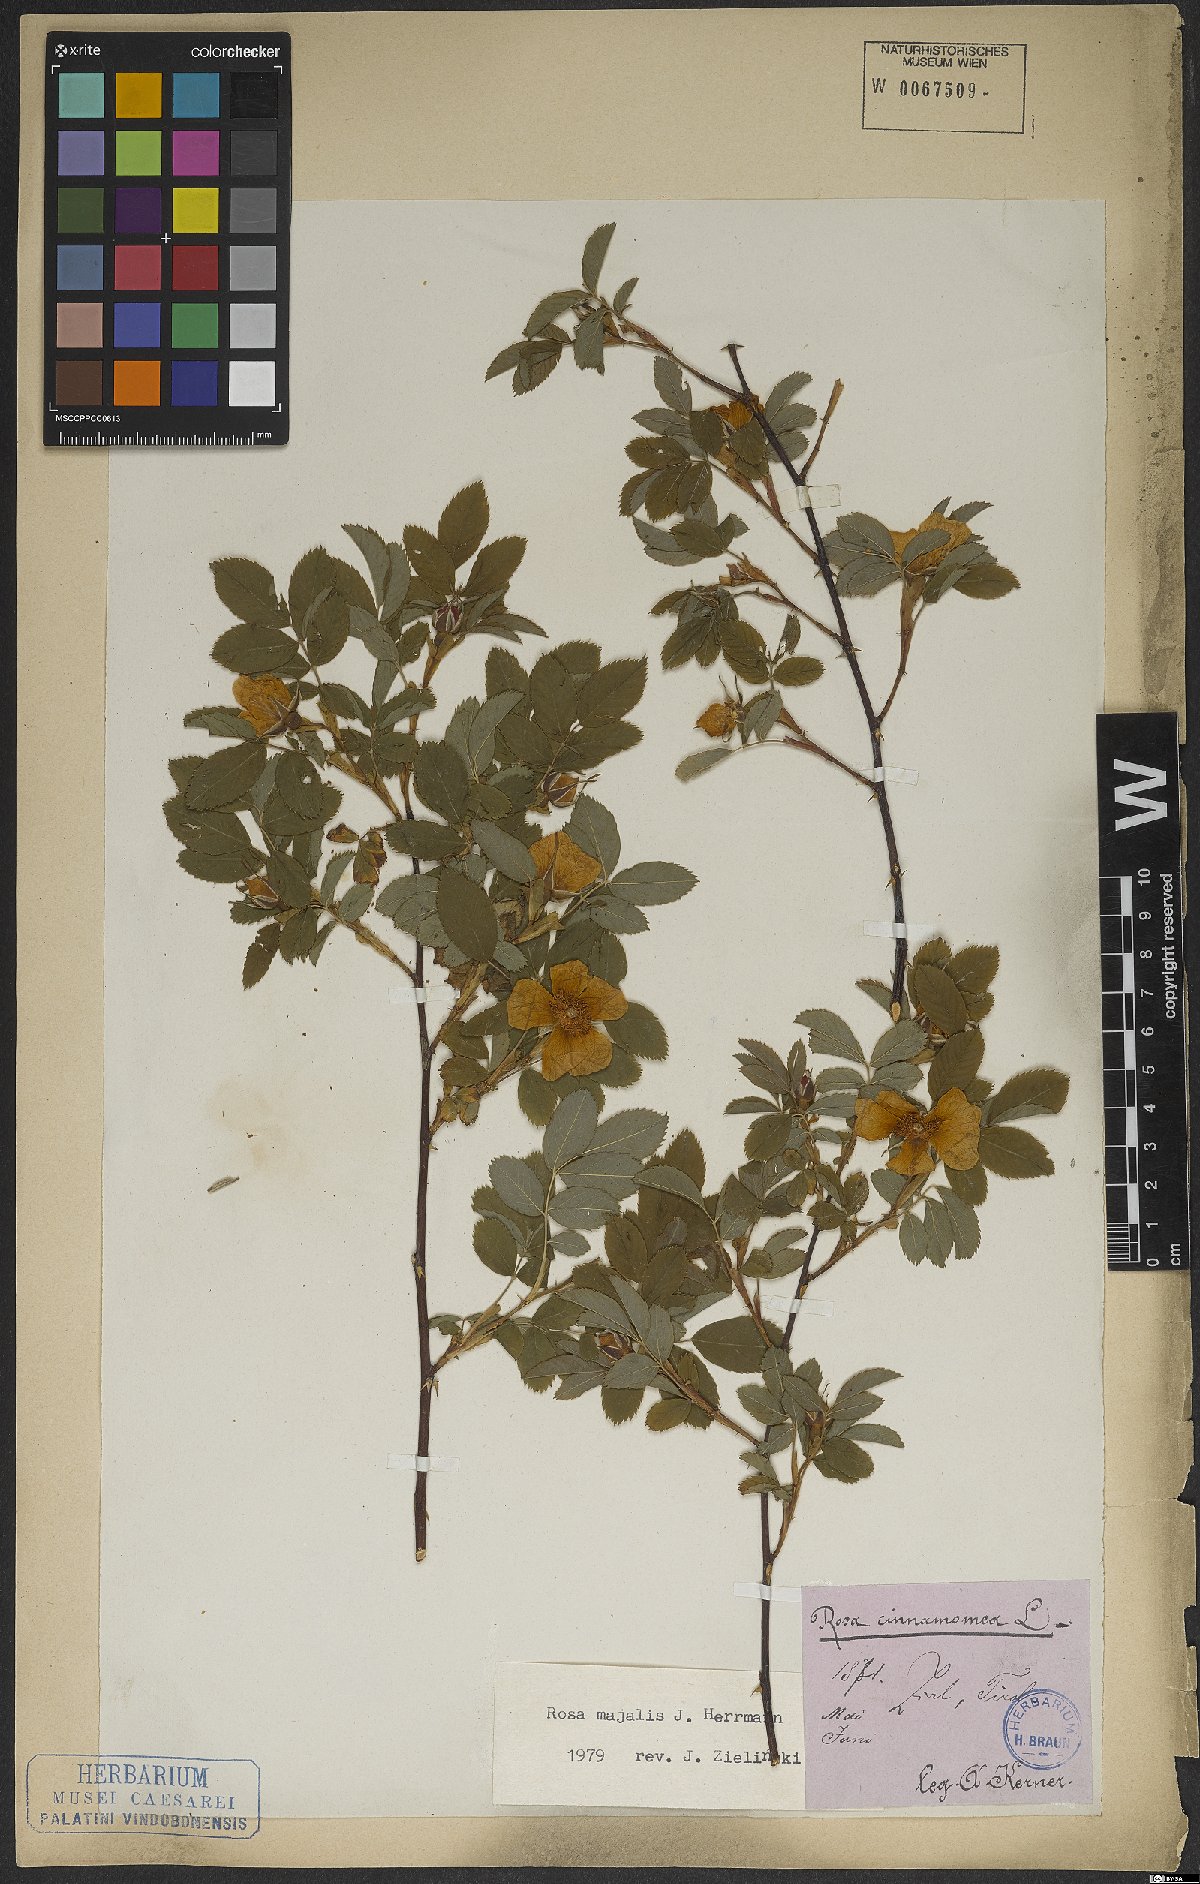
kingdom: Plantae
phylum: Tracheophyta
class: Magnoliopsida
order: Rosales
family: Rosaceae
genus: Rosa
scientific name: Rosa majalis
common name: Cinnamon rose
